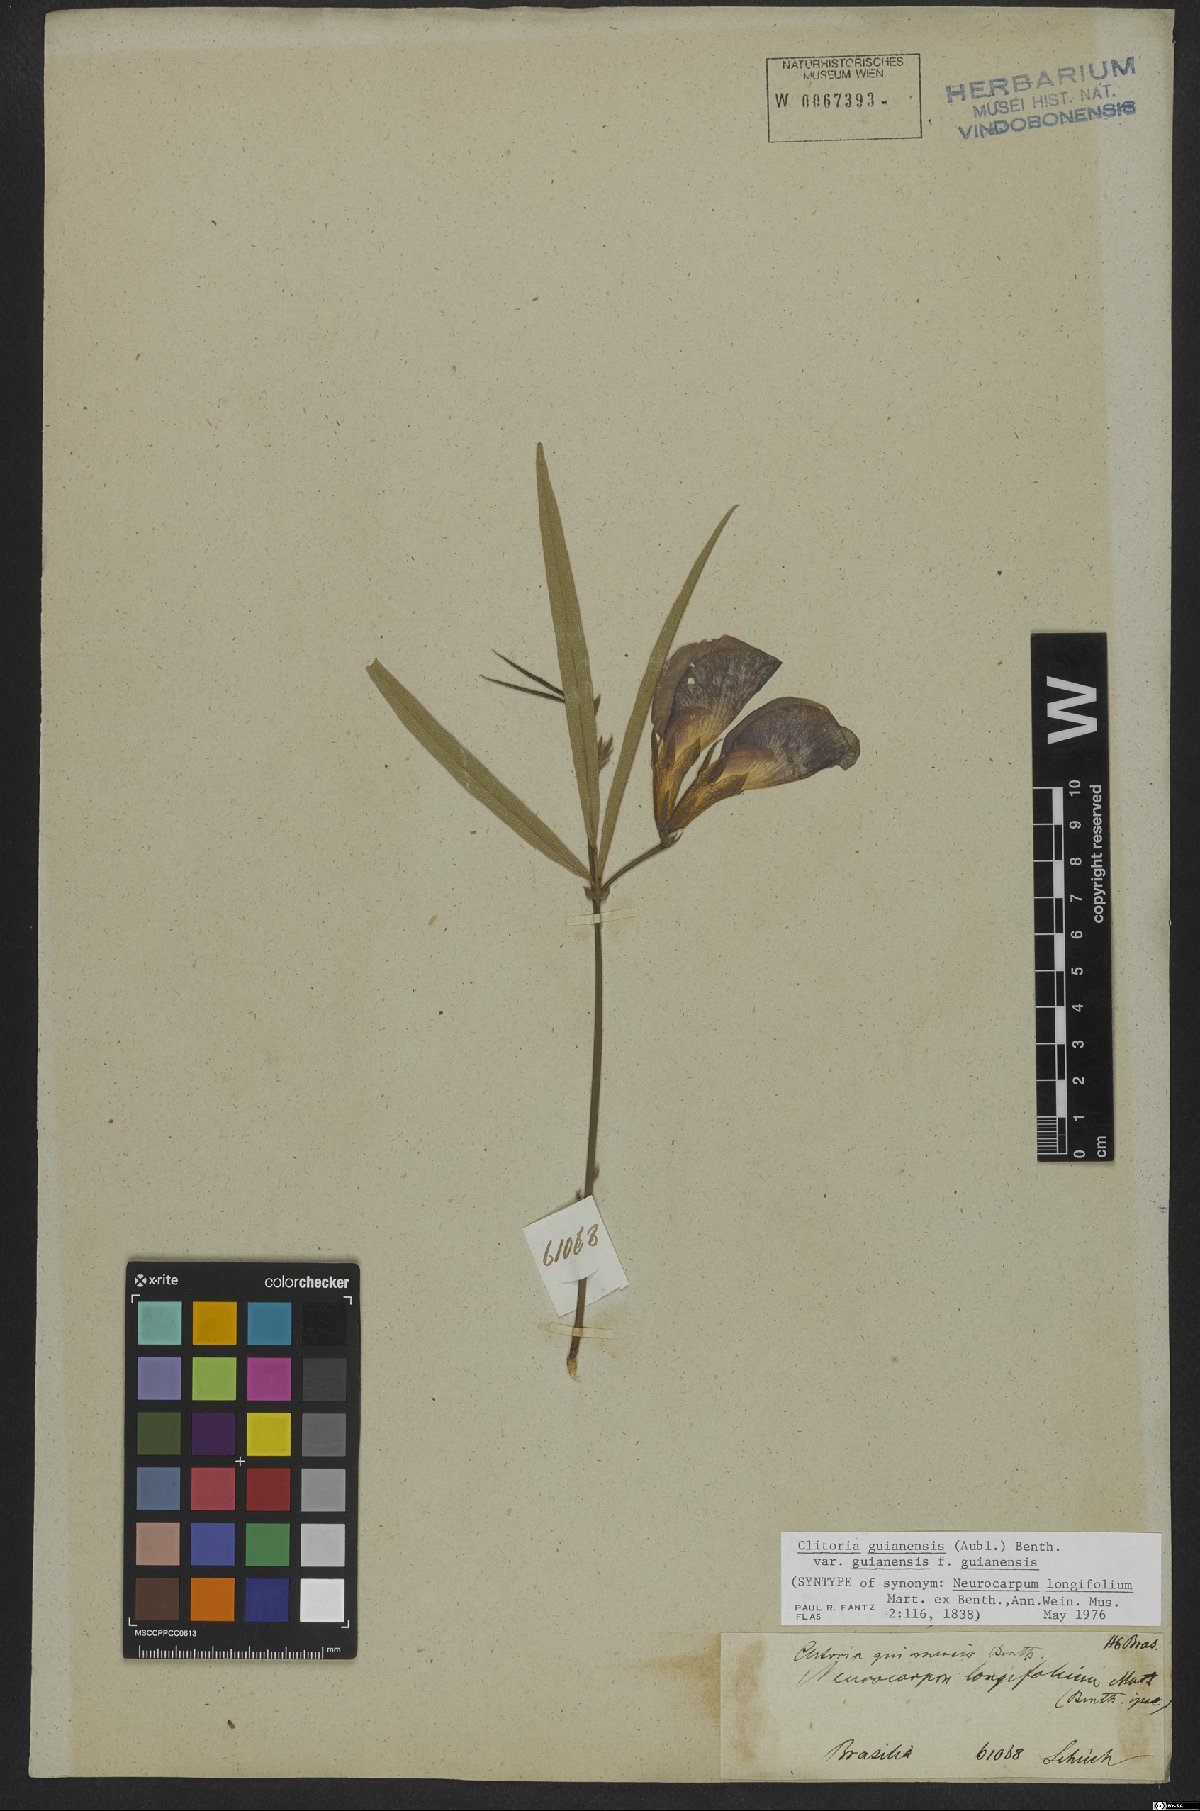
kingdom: Plantae
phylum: Tracheophyta
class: Magnoliopsida
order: Fabales
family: Fabaceae
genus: Clitoria
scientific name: Clitoria guianensis
